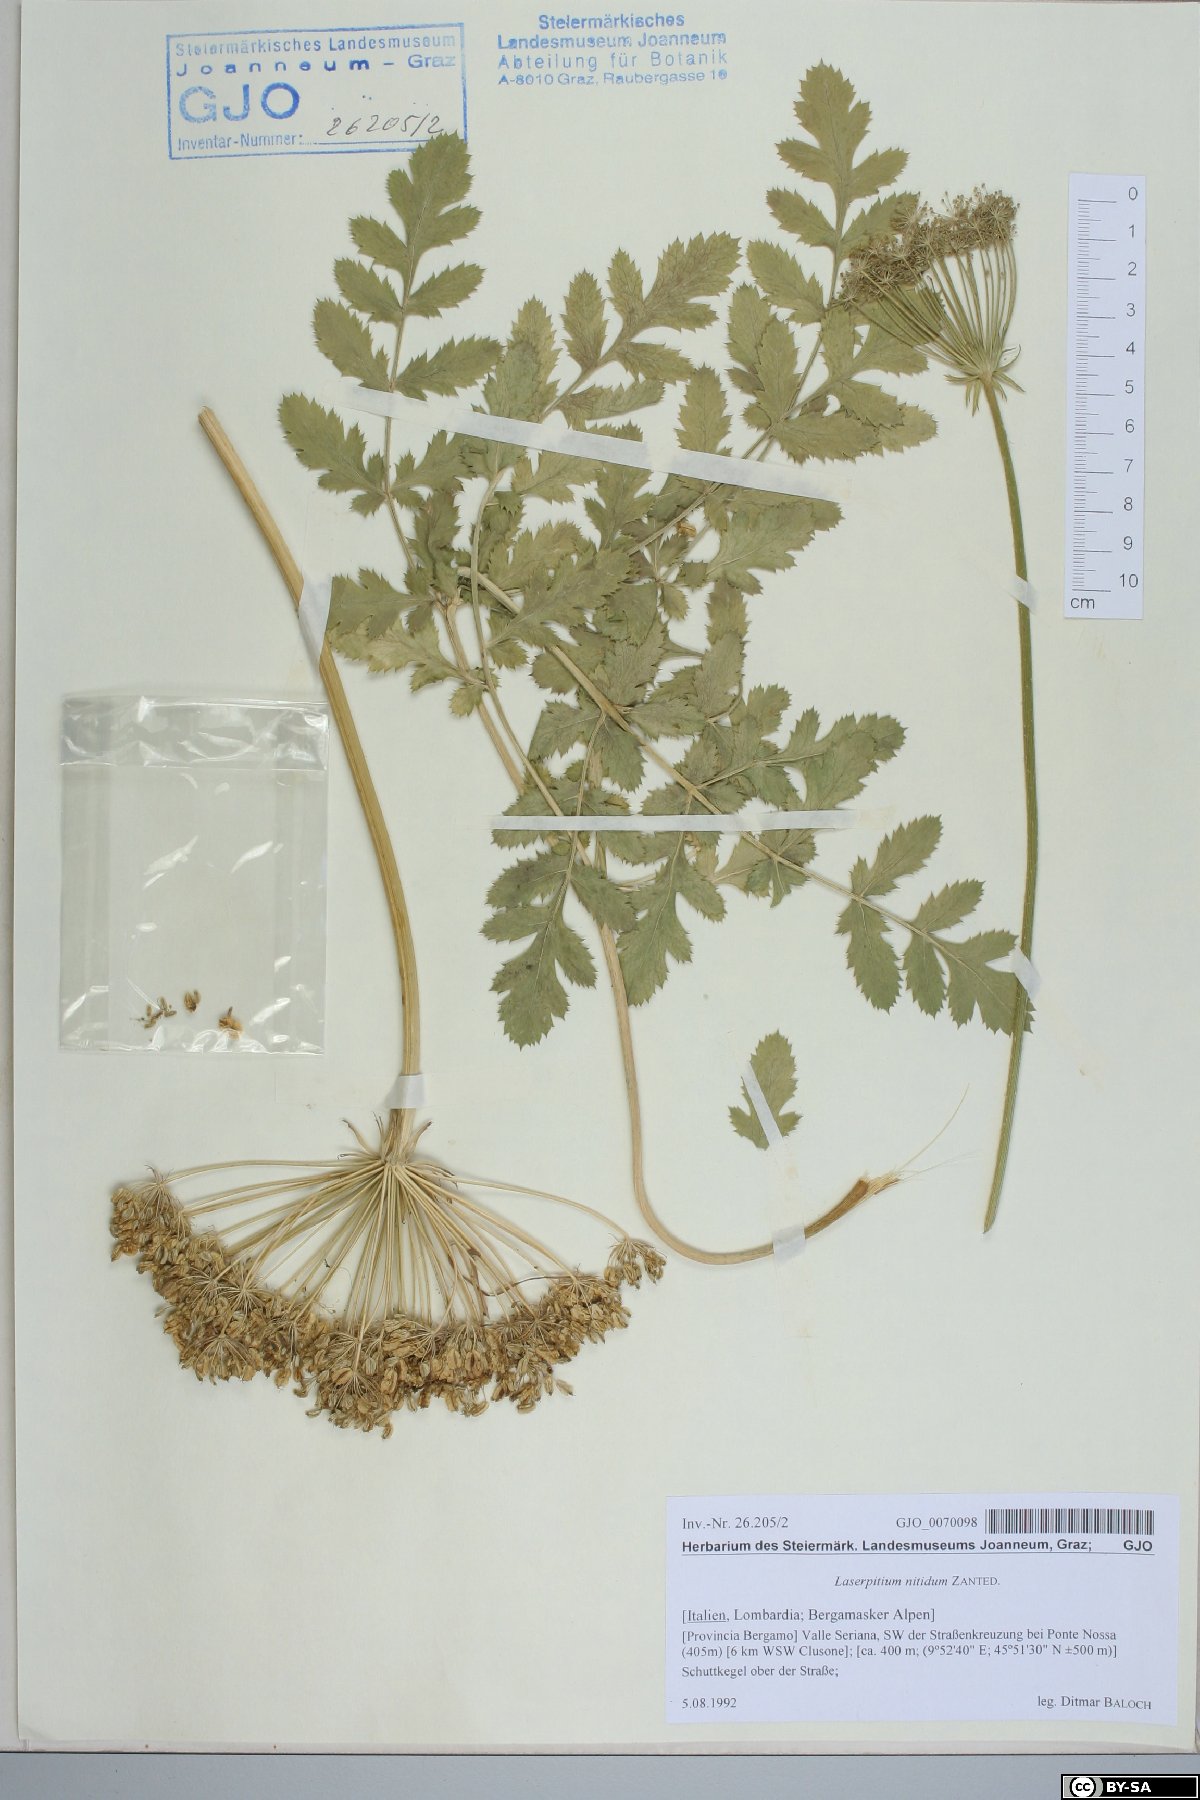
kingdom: Plantae
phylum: Tracheophyta
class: Magnoliopsida
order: Apiales
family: Apiaceae
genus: Laserpitium
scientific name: Laserpitium nitidum
